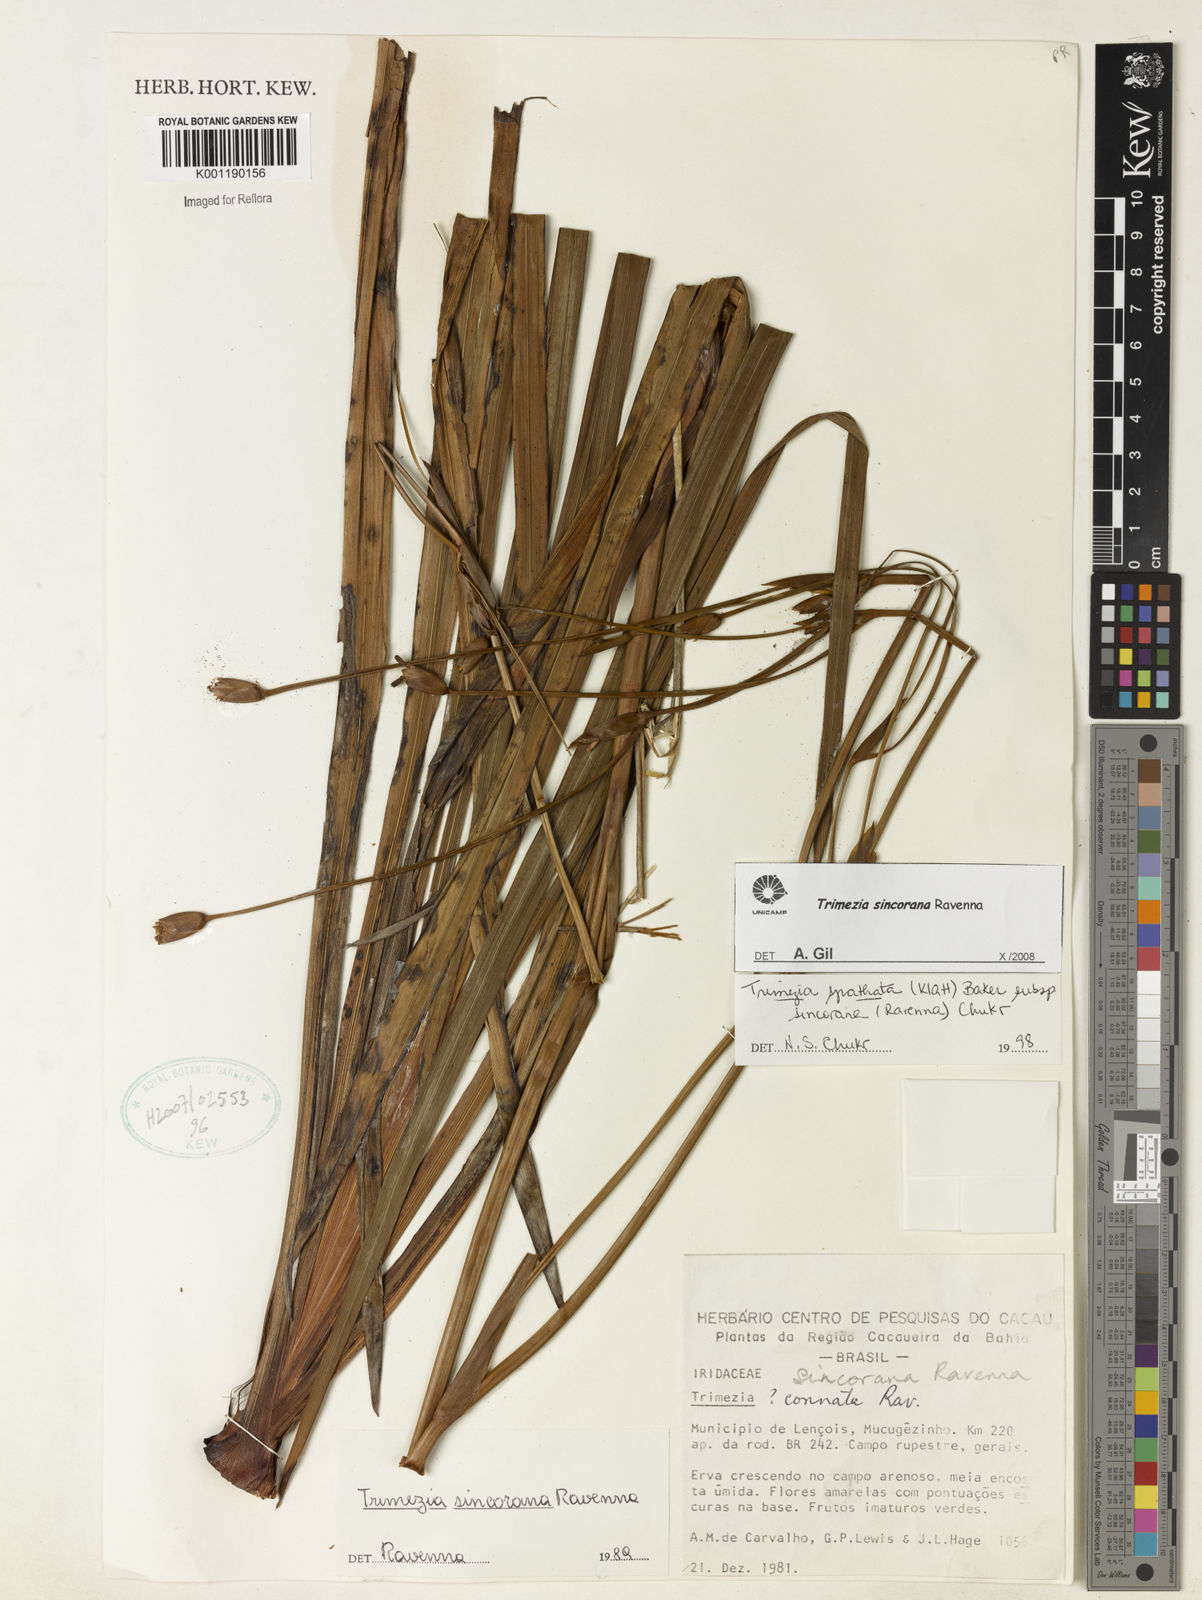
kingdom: Plantae
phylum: Tracheophyta
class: Liliopsida
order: Asparagales
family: Iridaceae
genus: Trimezia
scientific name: Trimezia spathata
